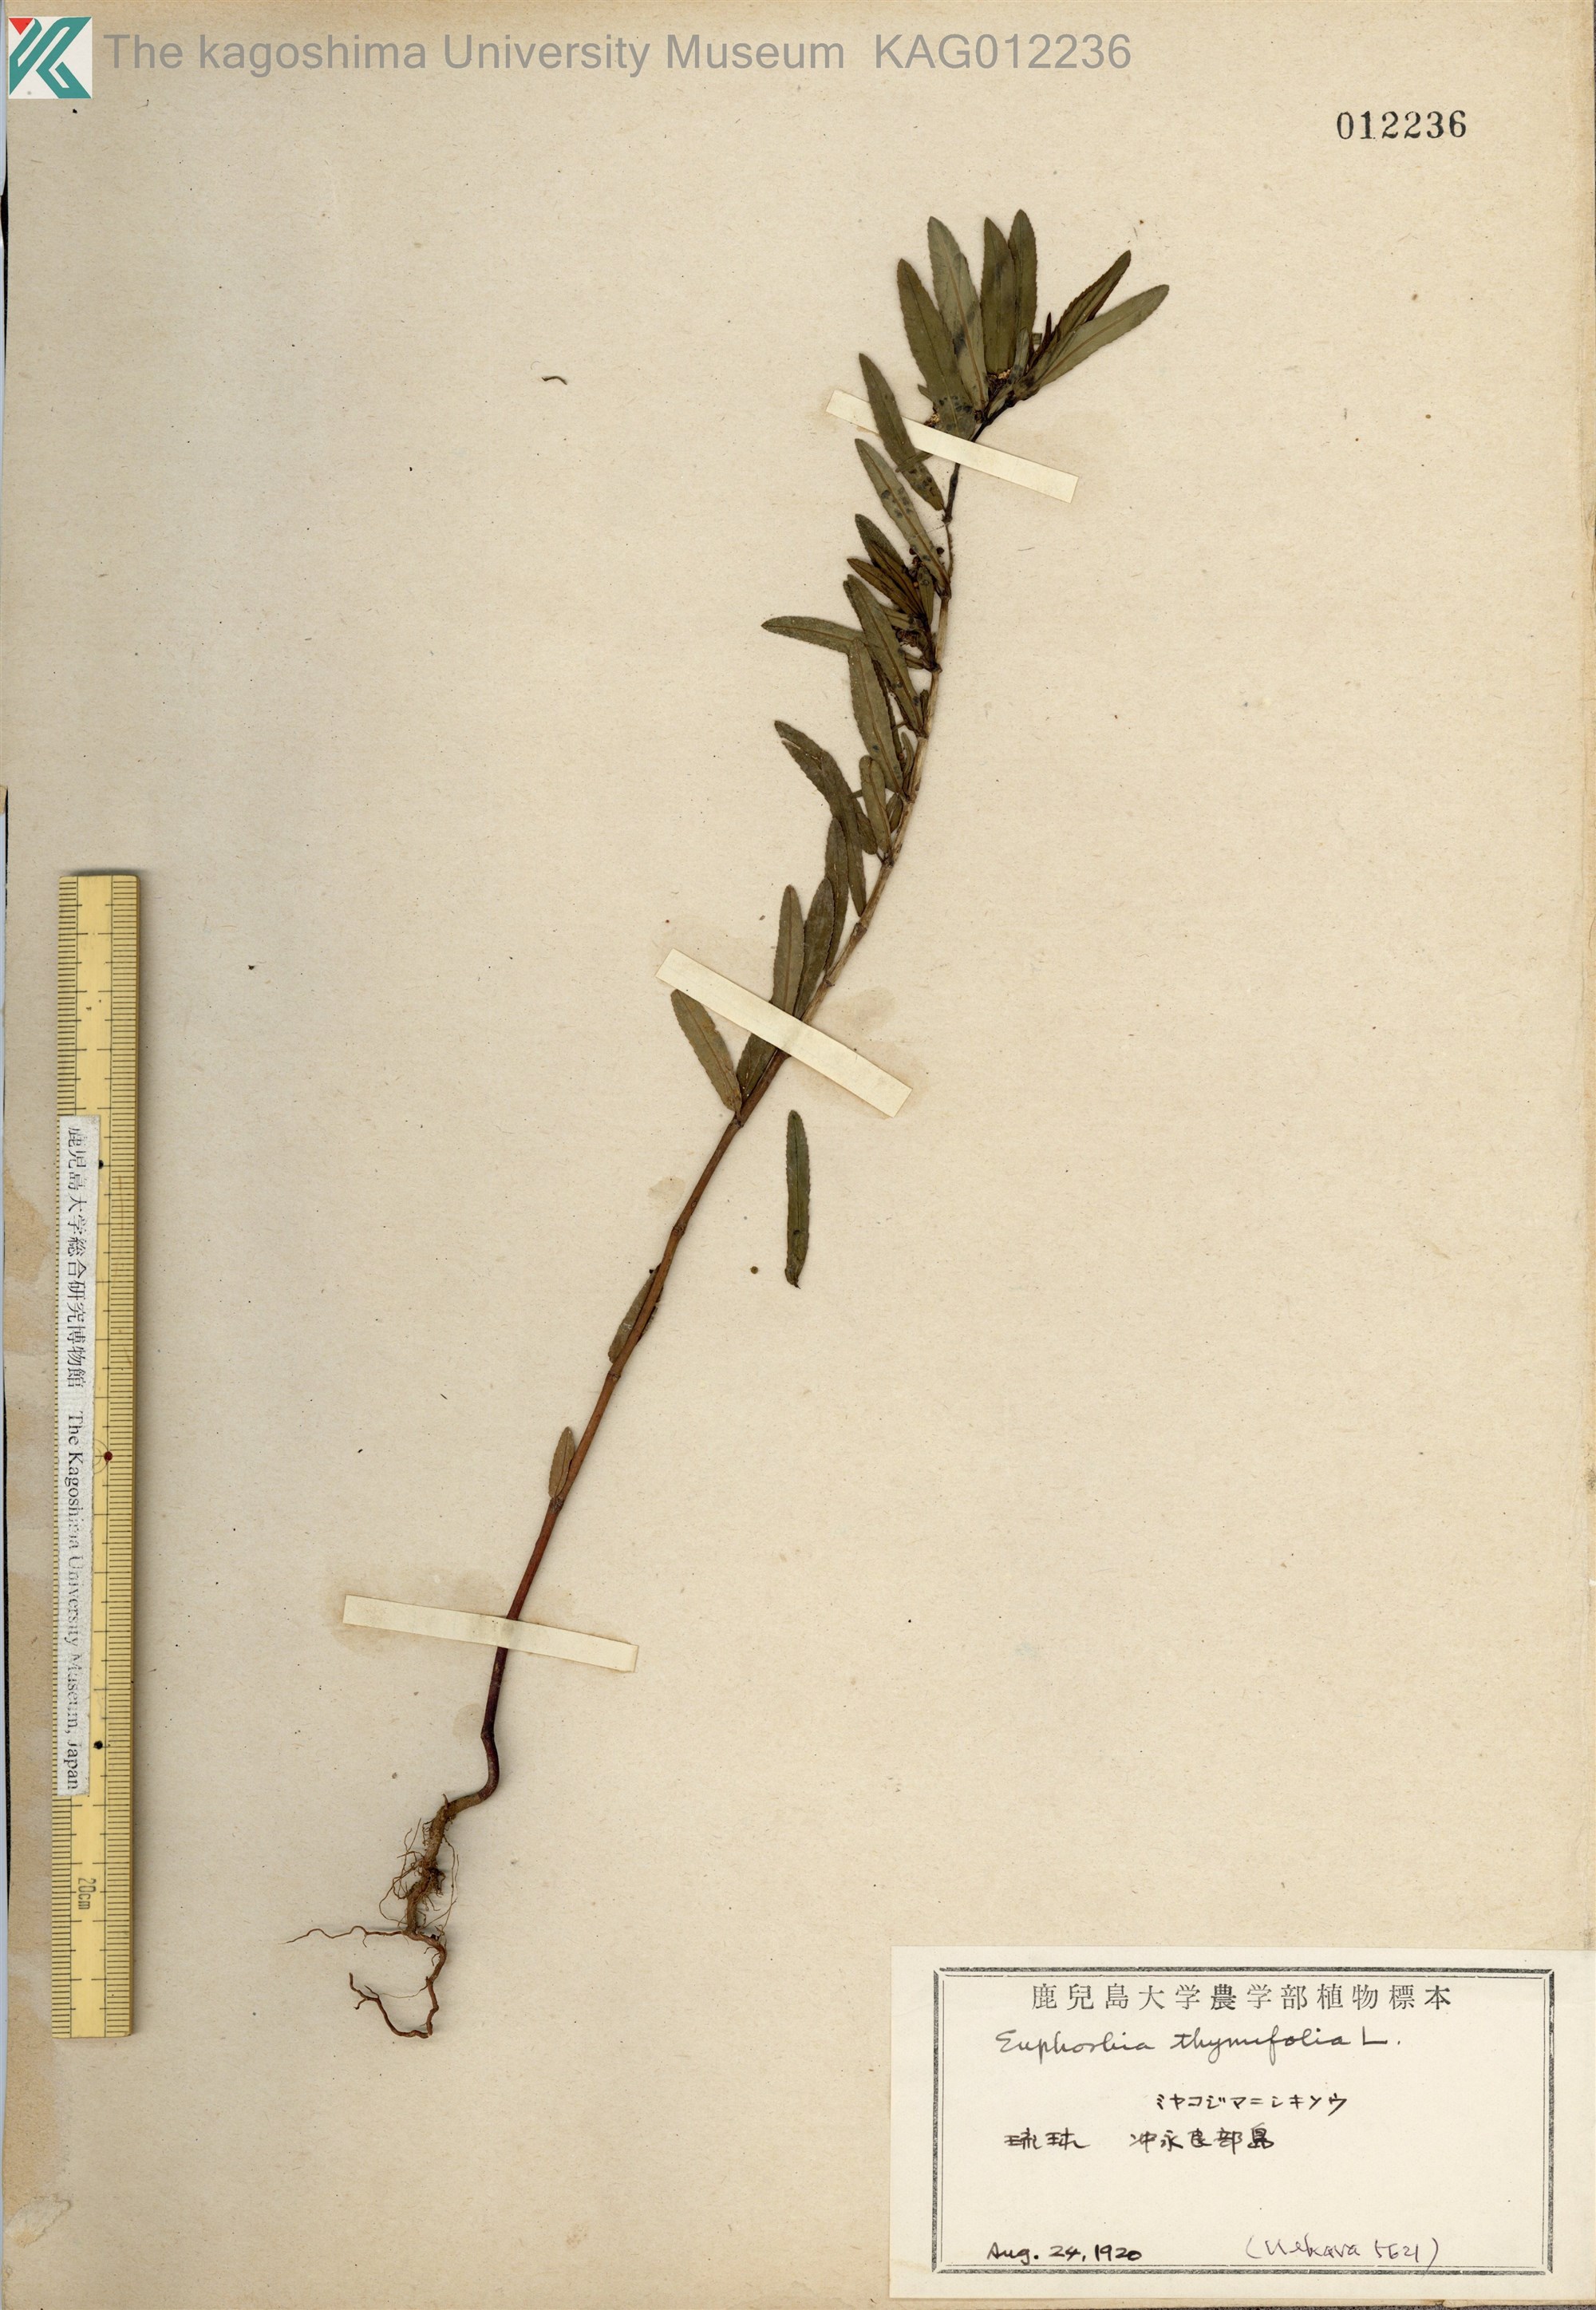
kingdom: Plantae
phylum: Tracheophyta
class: Magnoliopsida
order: Malpighiales
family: Euphorbiaceae
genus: Euphorbia
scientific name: Euphorbia bifida
